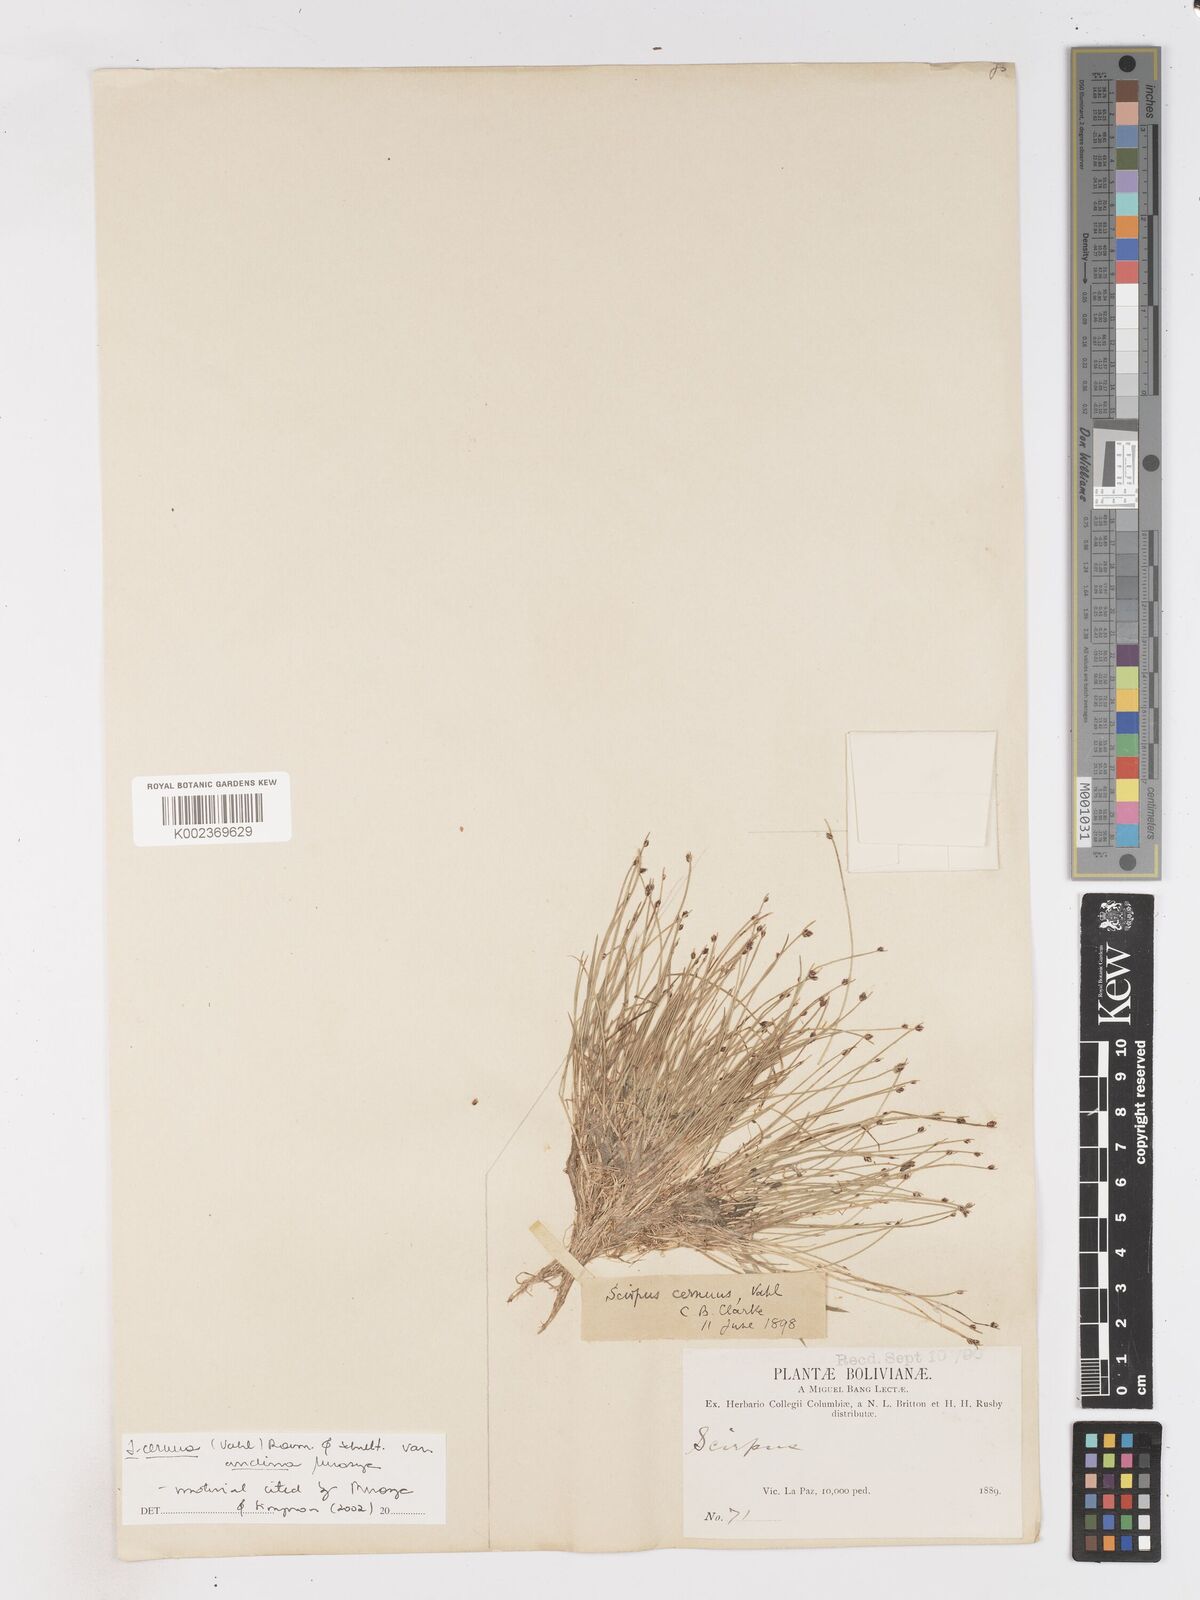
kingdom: Plantae
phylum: Tracheophyta
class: Liliopsida
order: Poales
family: Cyperaceae
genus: Isolepis
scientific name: Isolepis cernua
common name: Slender club-rush
